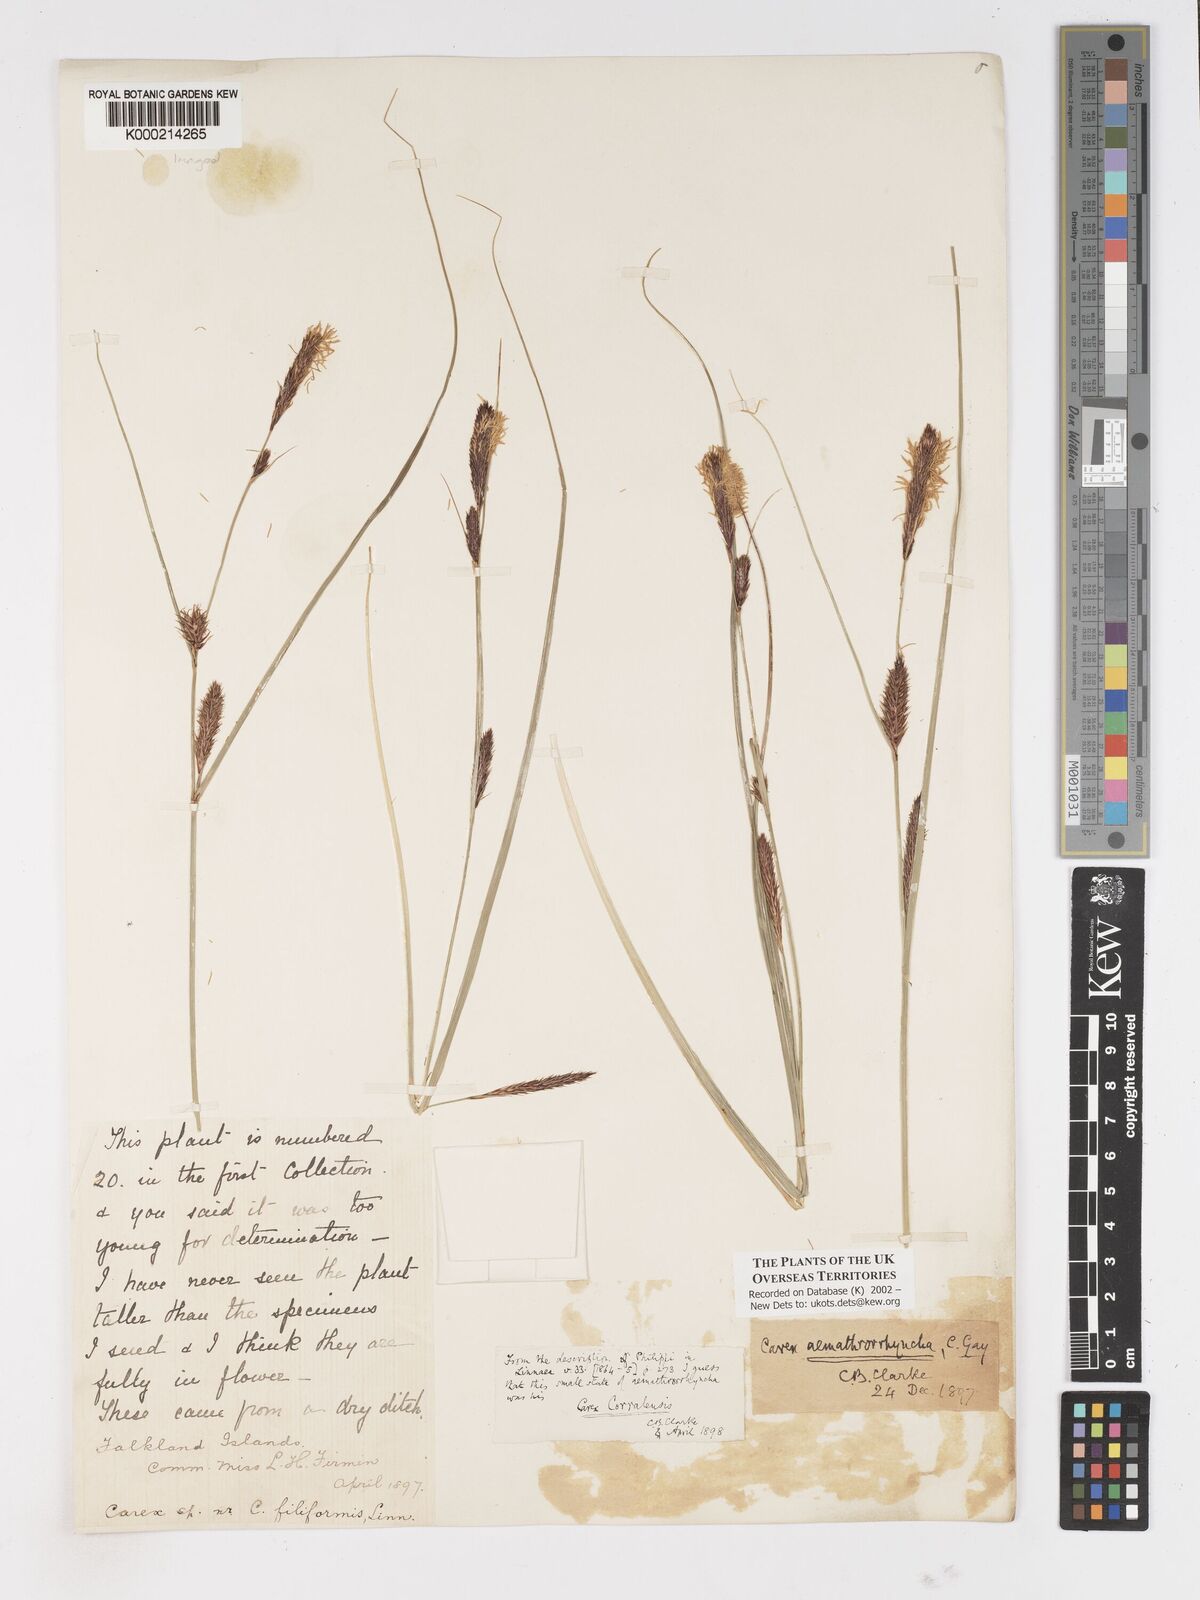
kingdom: Plantae
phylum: Tracheophyta
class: Liliopsida
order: Poales
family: Cyperaceae
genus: Carex
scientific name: Carex aematorhyncha
